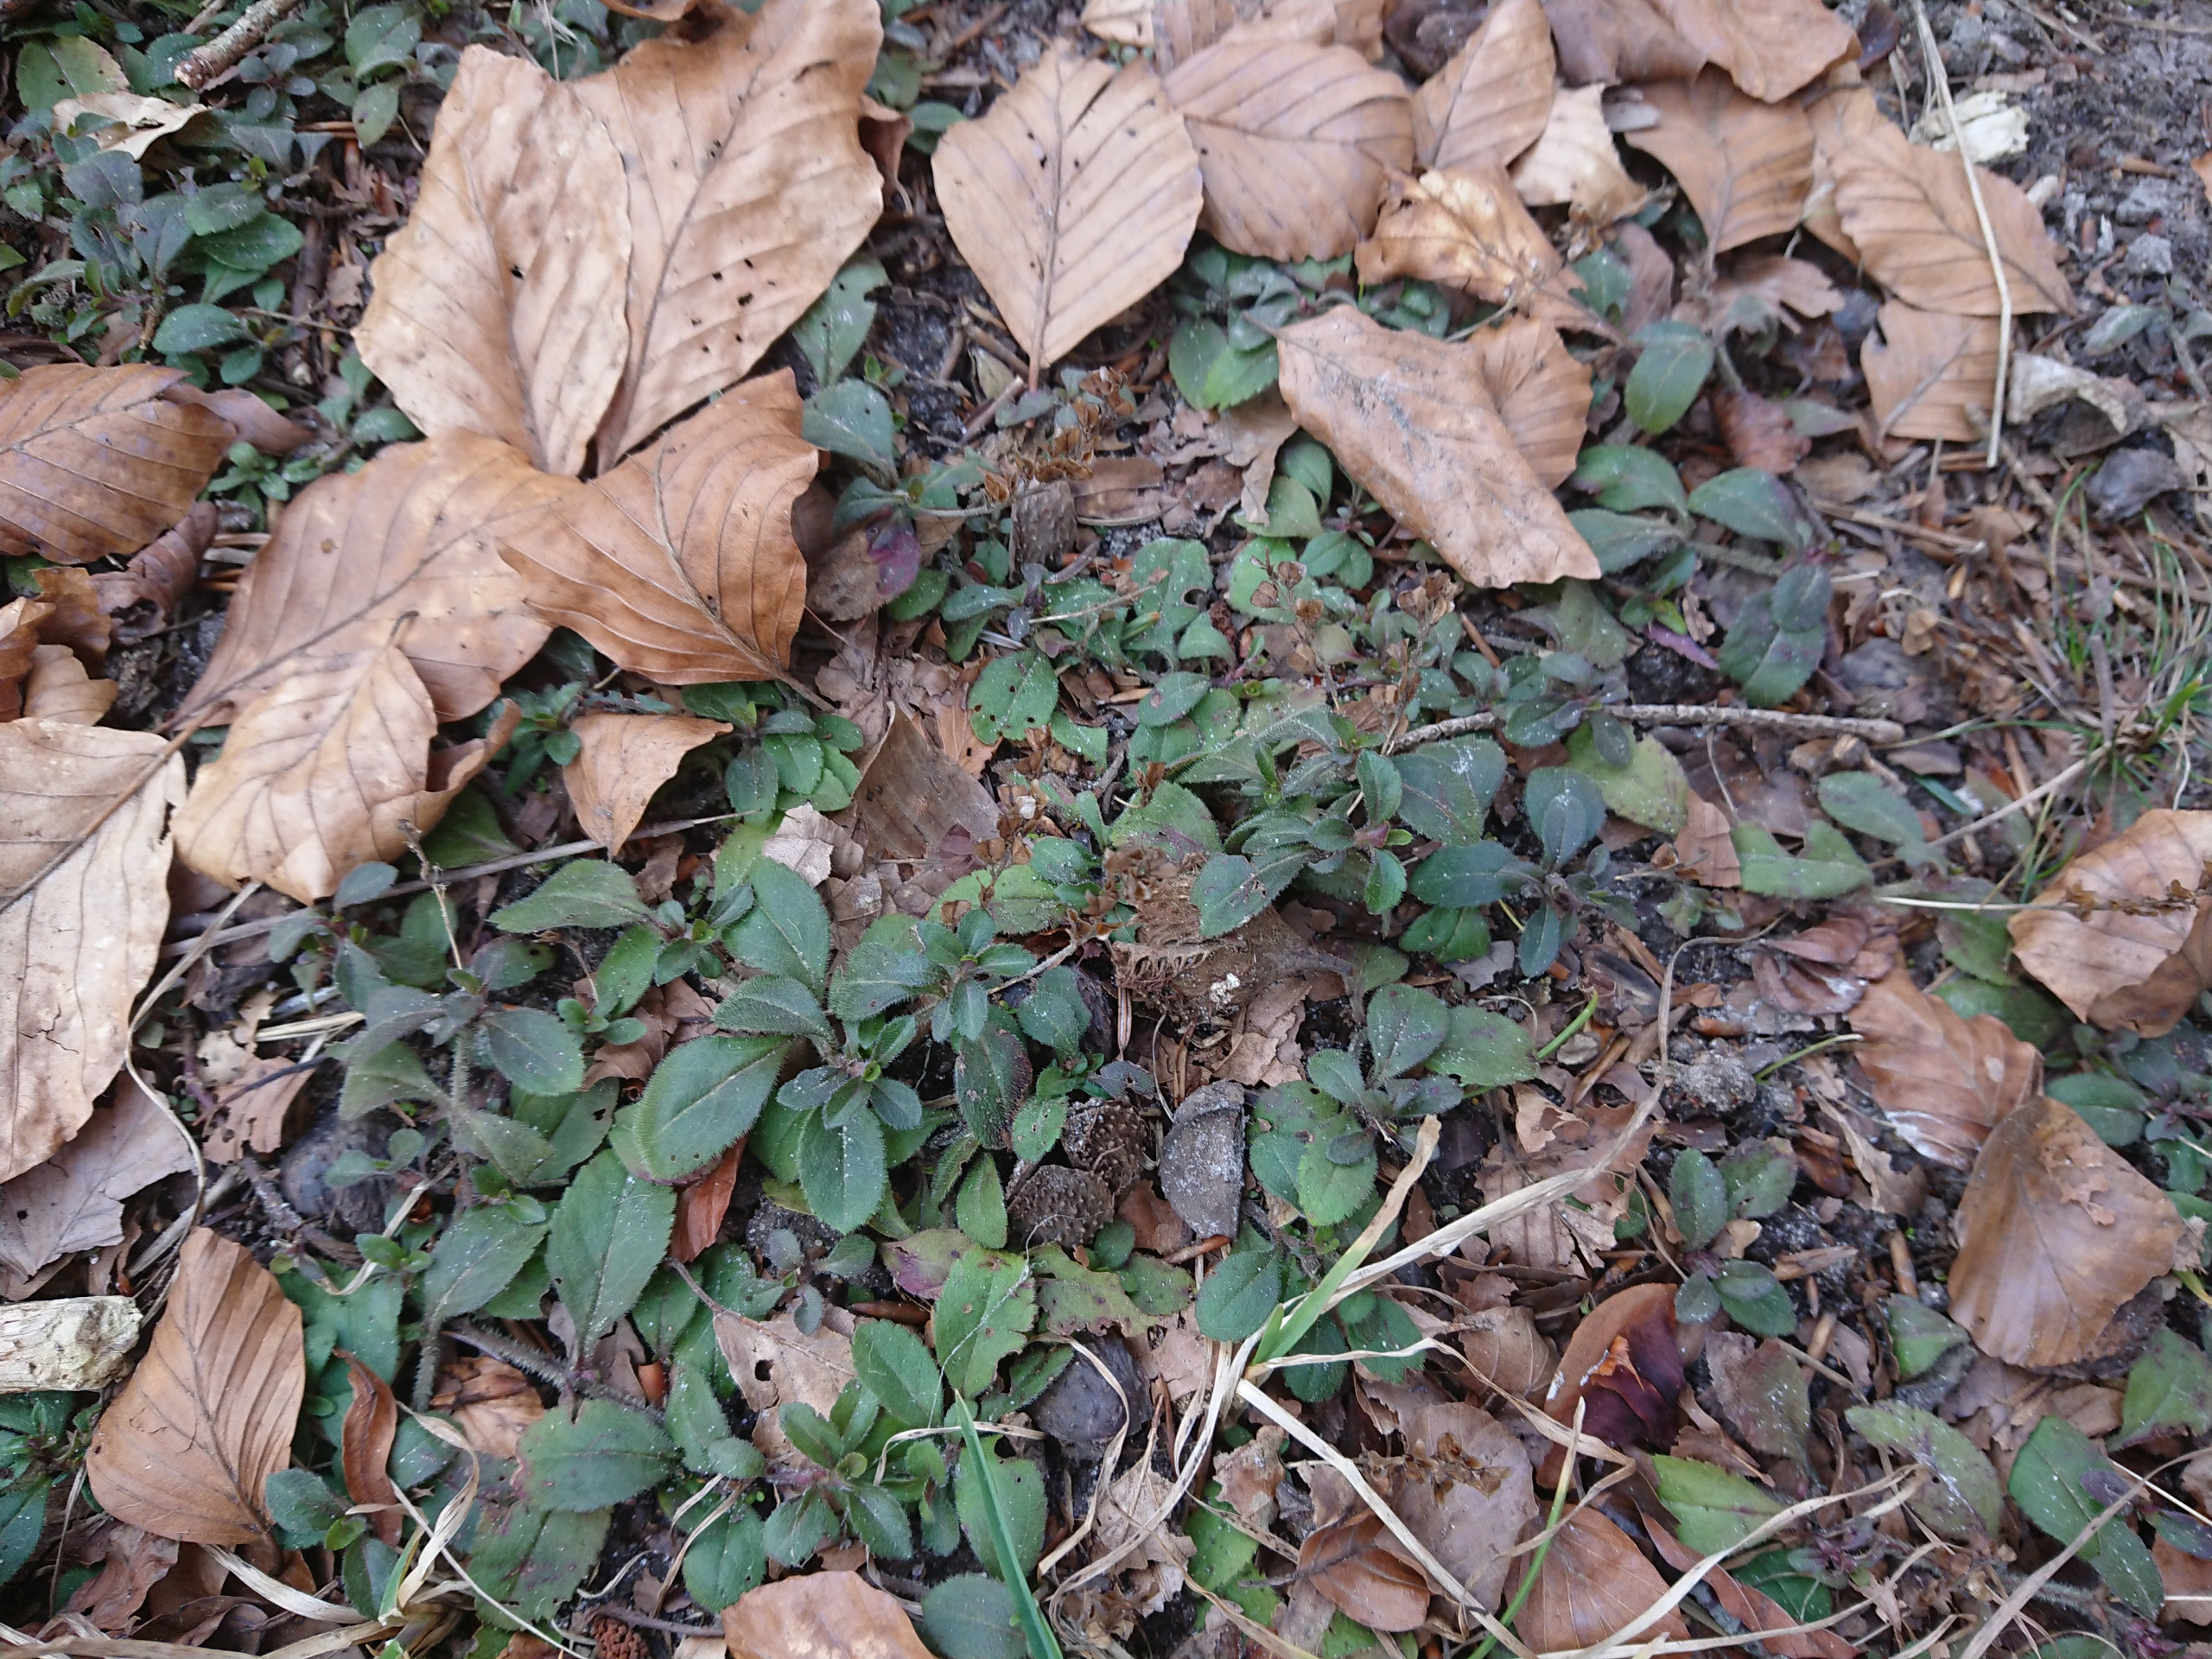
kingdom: Plantae
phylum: Tracheophyta
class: Magnoliopsida
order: Lamiales
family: Plantaginaceae
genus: Veronica
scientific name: Veronica officinalis
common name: Læge-ærenpris
